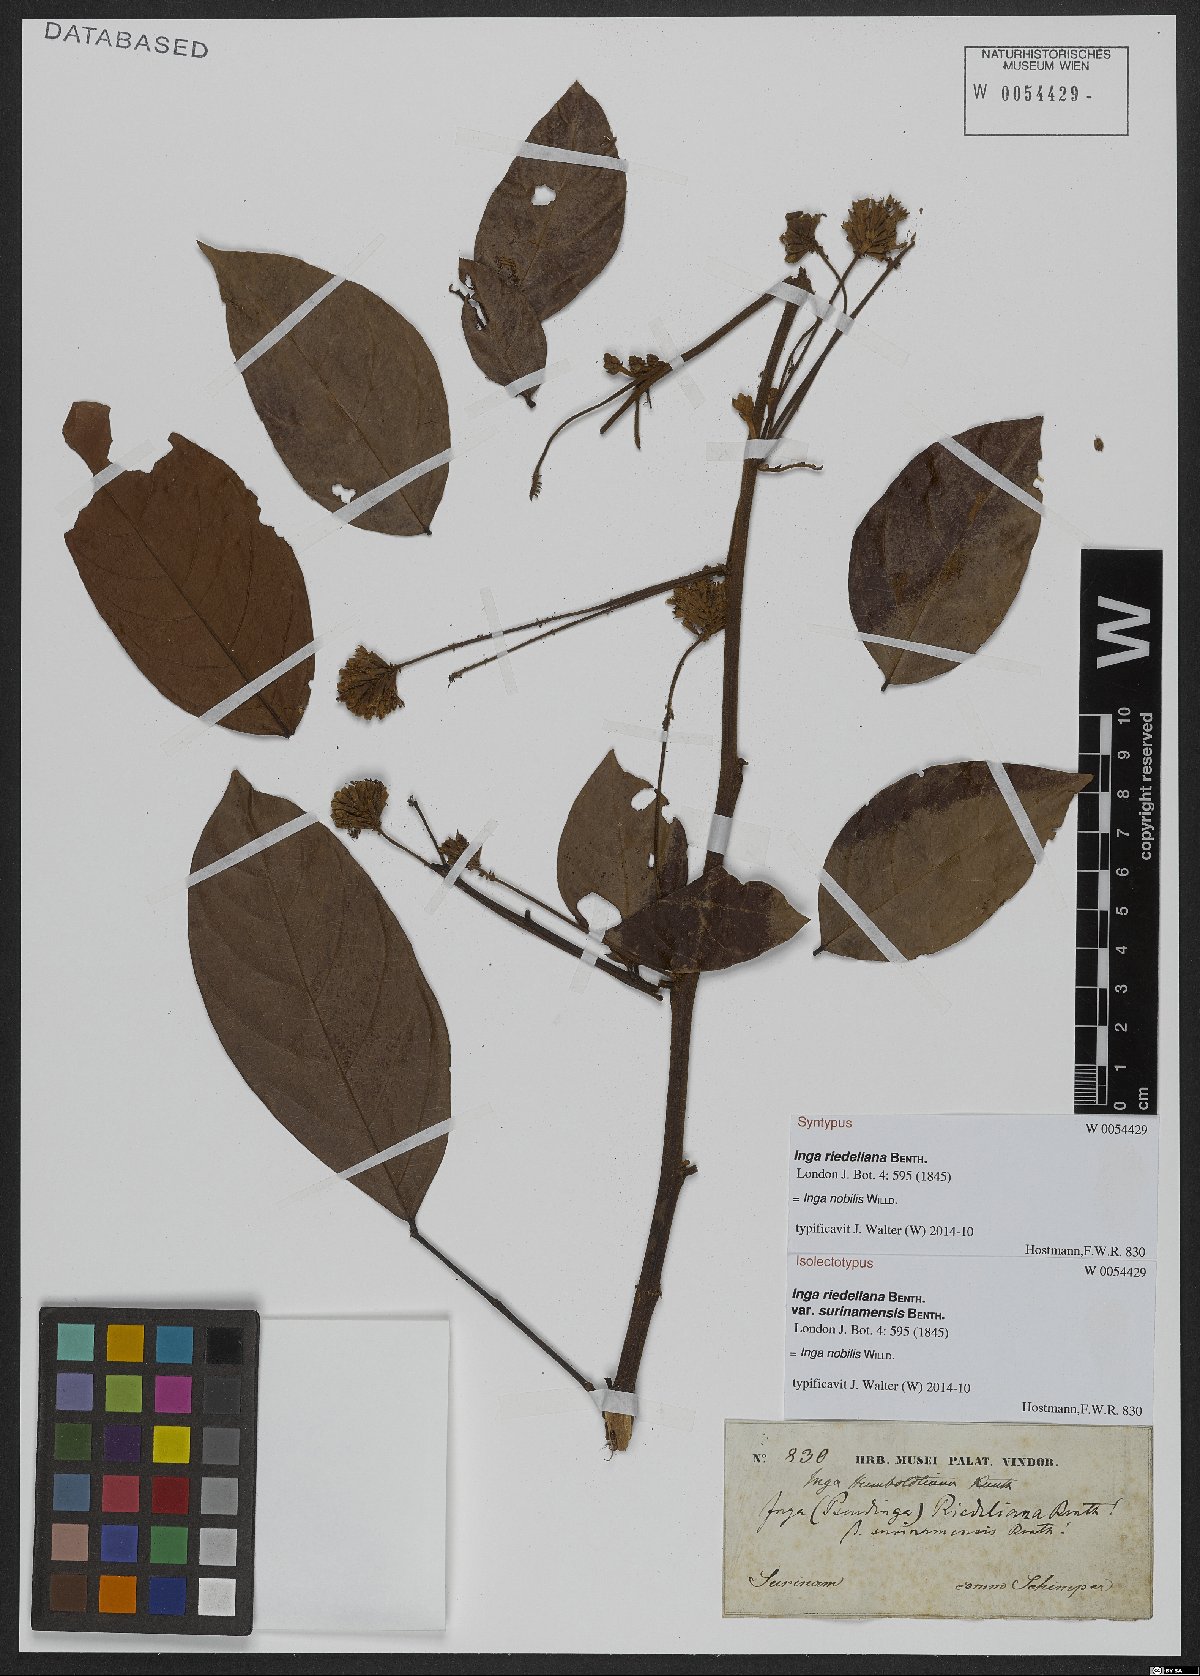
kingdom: Plantae
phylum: Tracheophyta
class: Magnoliopsida
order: Fabales
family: Fabaceae
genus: Inga
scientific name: Inga nobilis
